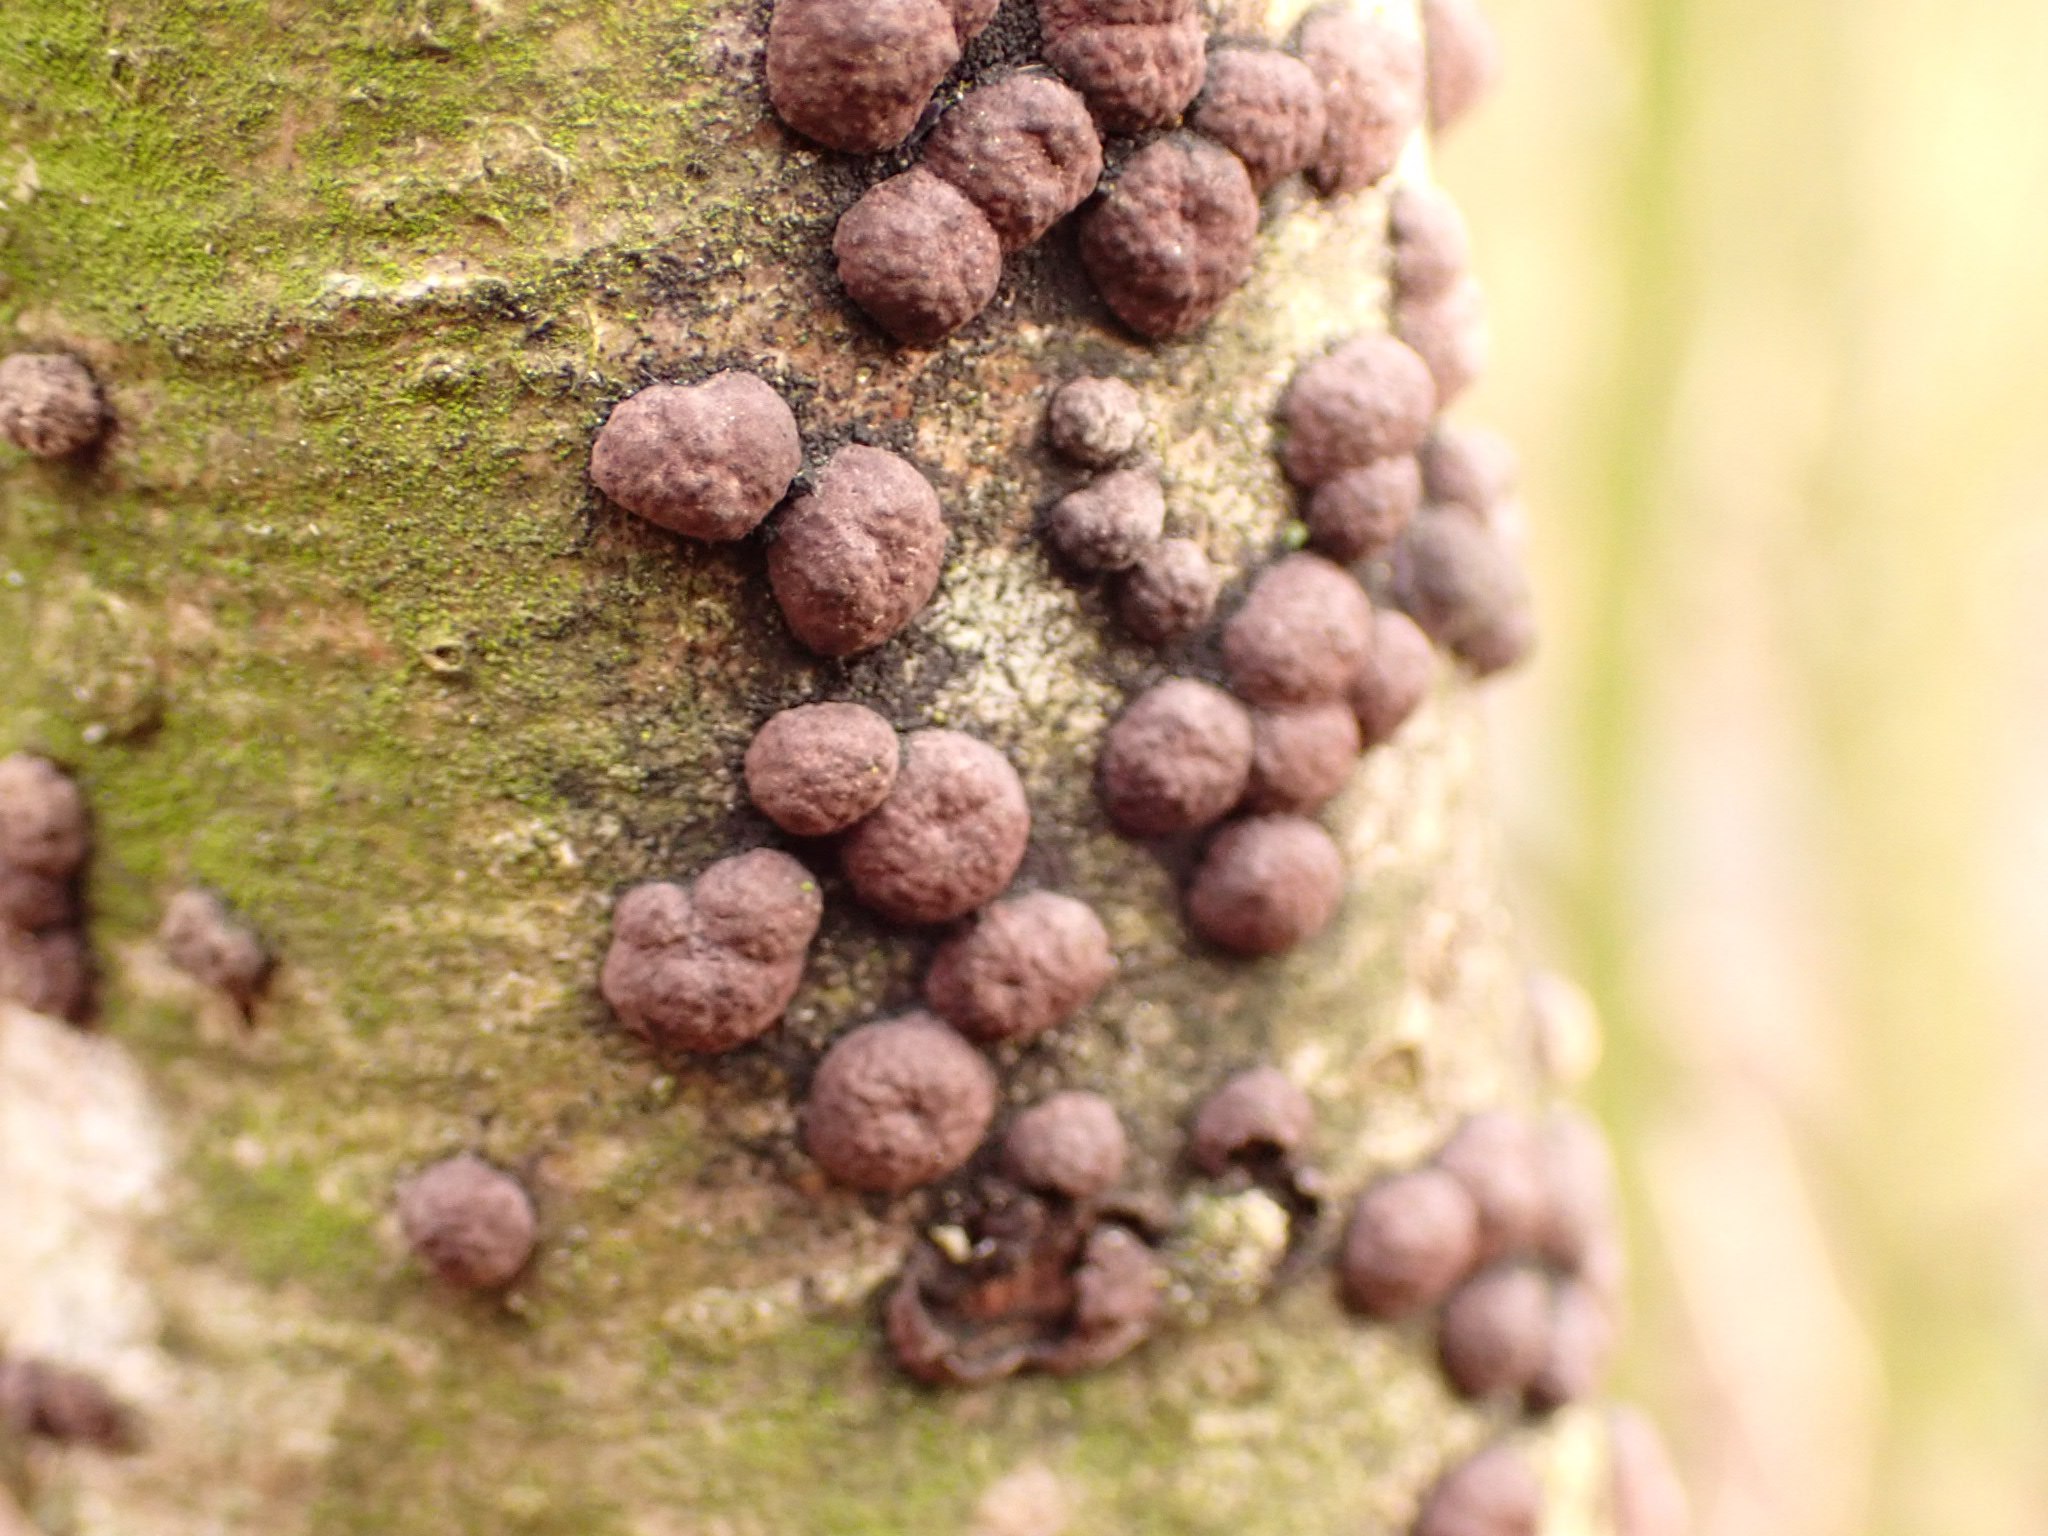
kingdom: Fungi
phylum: Ascomycota
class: Sordariomycetes
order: Xylariales
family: Hypoxylaceae
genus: Hypoxylon
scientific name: Hypoxylon fuscum
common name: kegleformet kulbær
